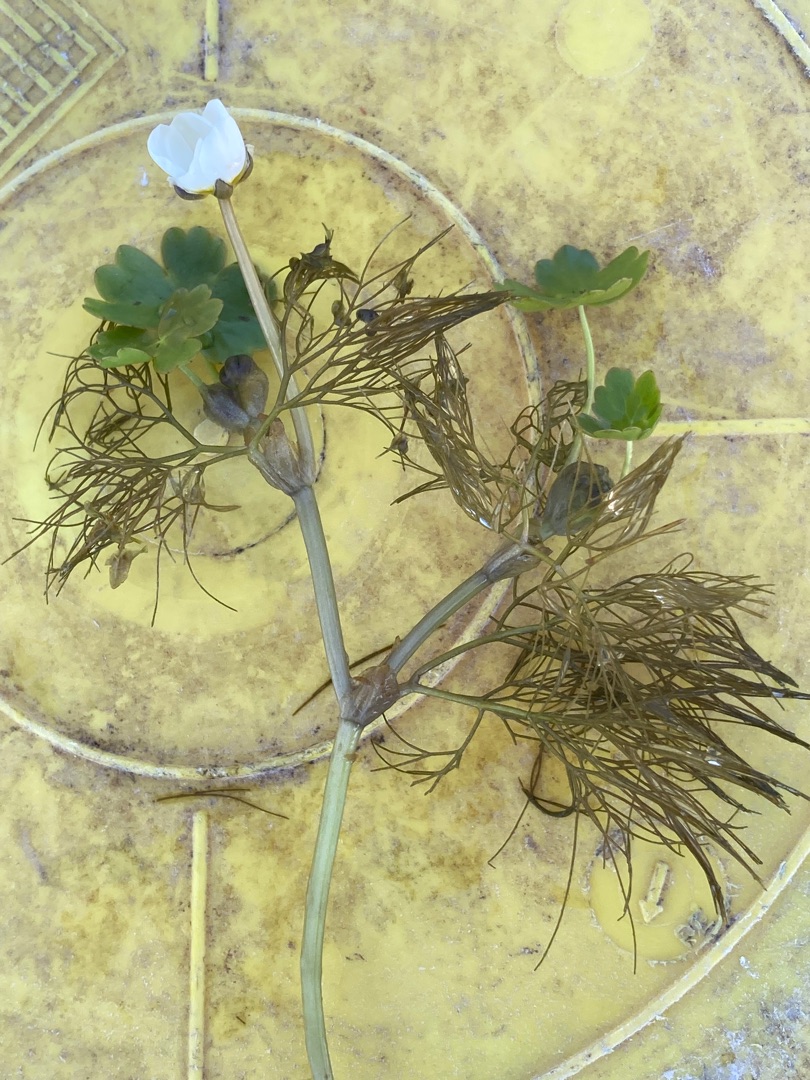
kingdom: Plantae
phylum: Tracheophyta
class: Magnoliopsida
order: Ranunculales
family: Ranunculaceae
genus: Ranunculus
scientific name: Ranunculus peltatus
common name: Storblomstret vandranunkel
